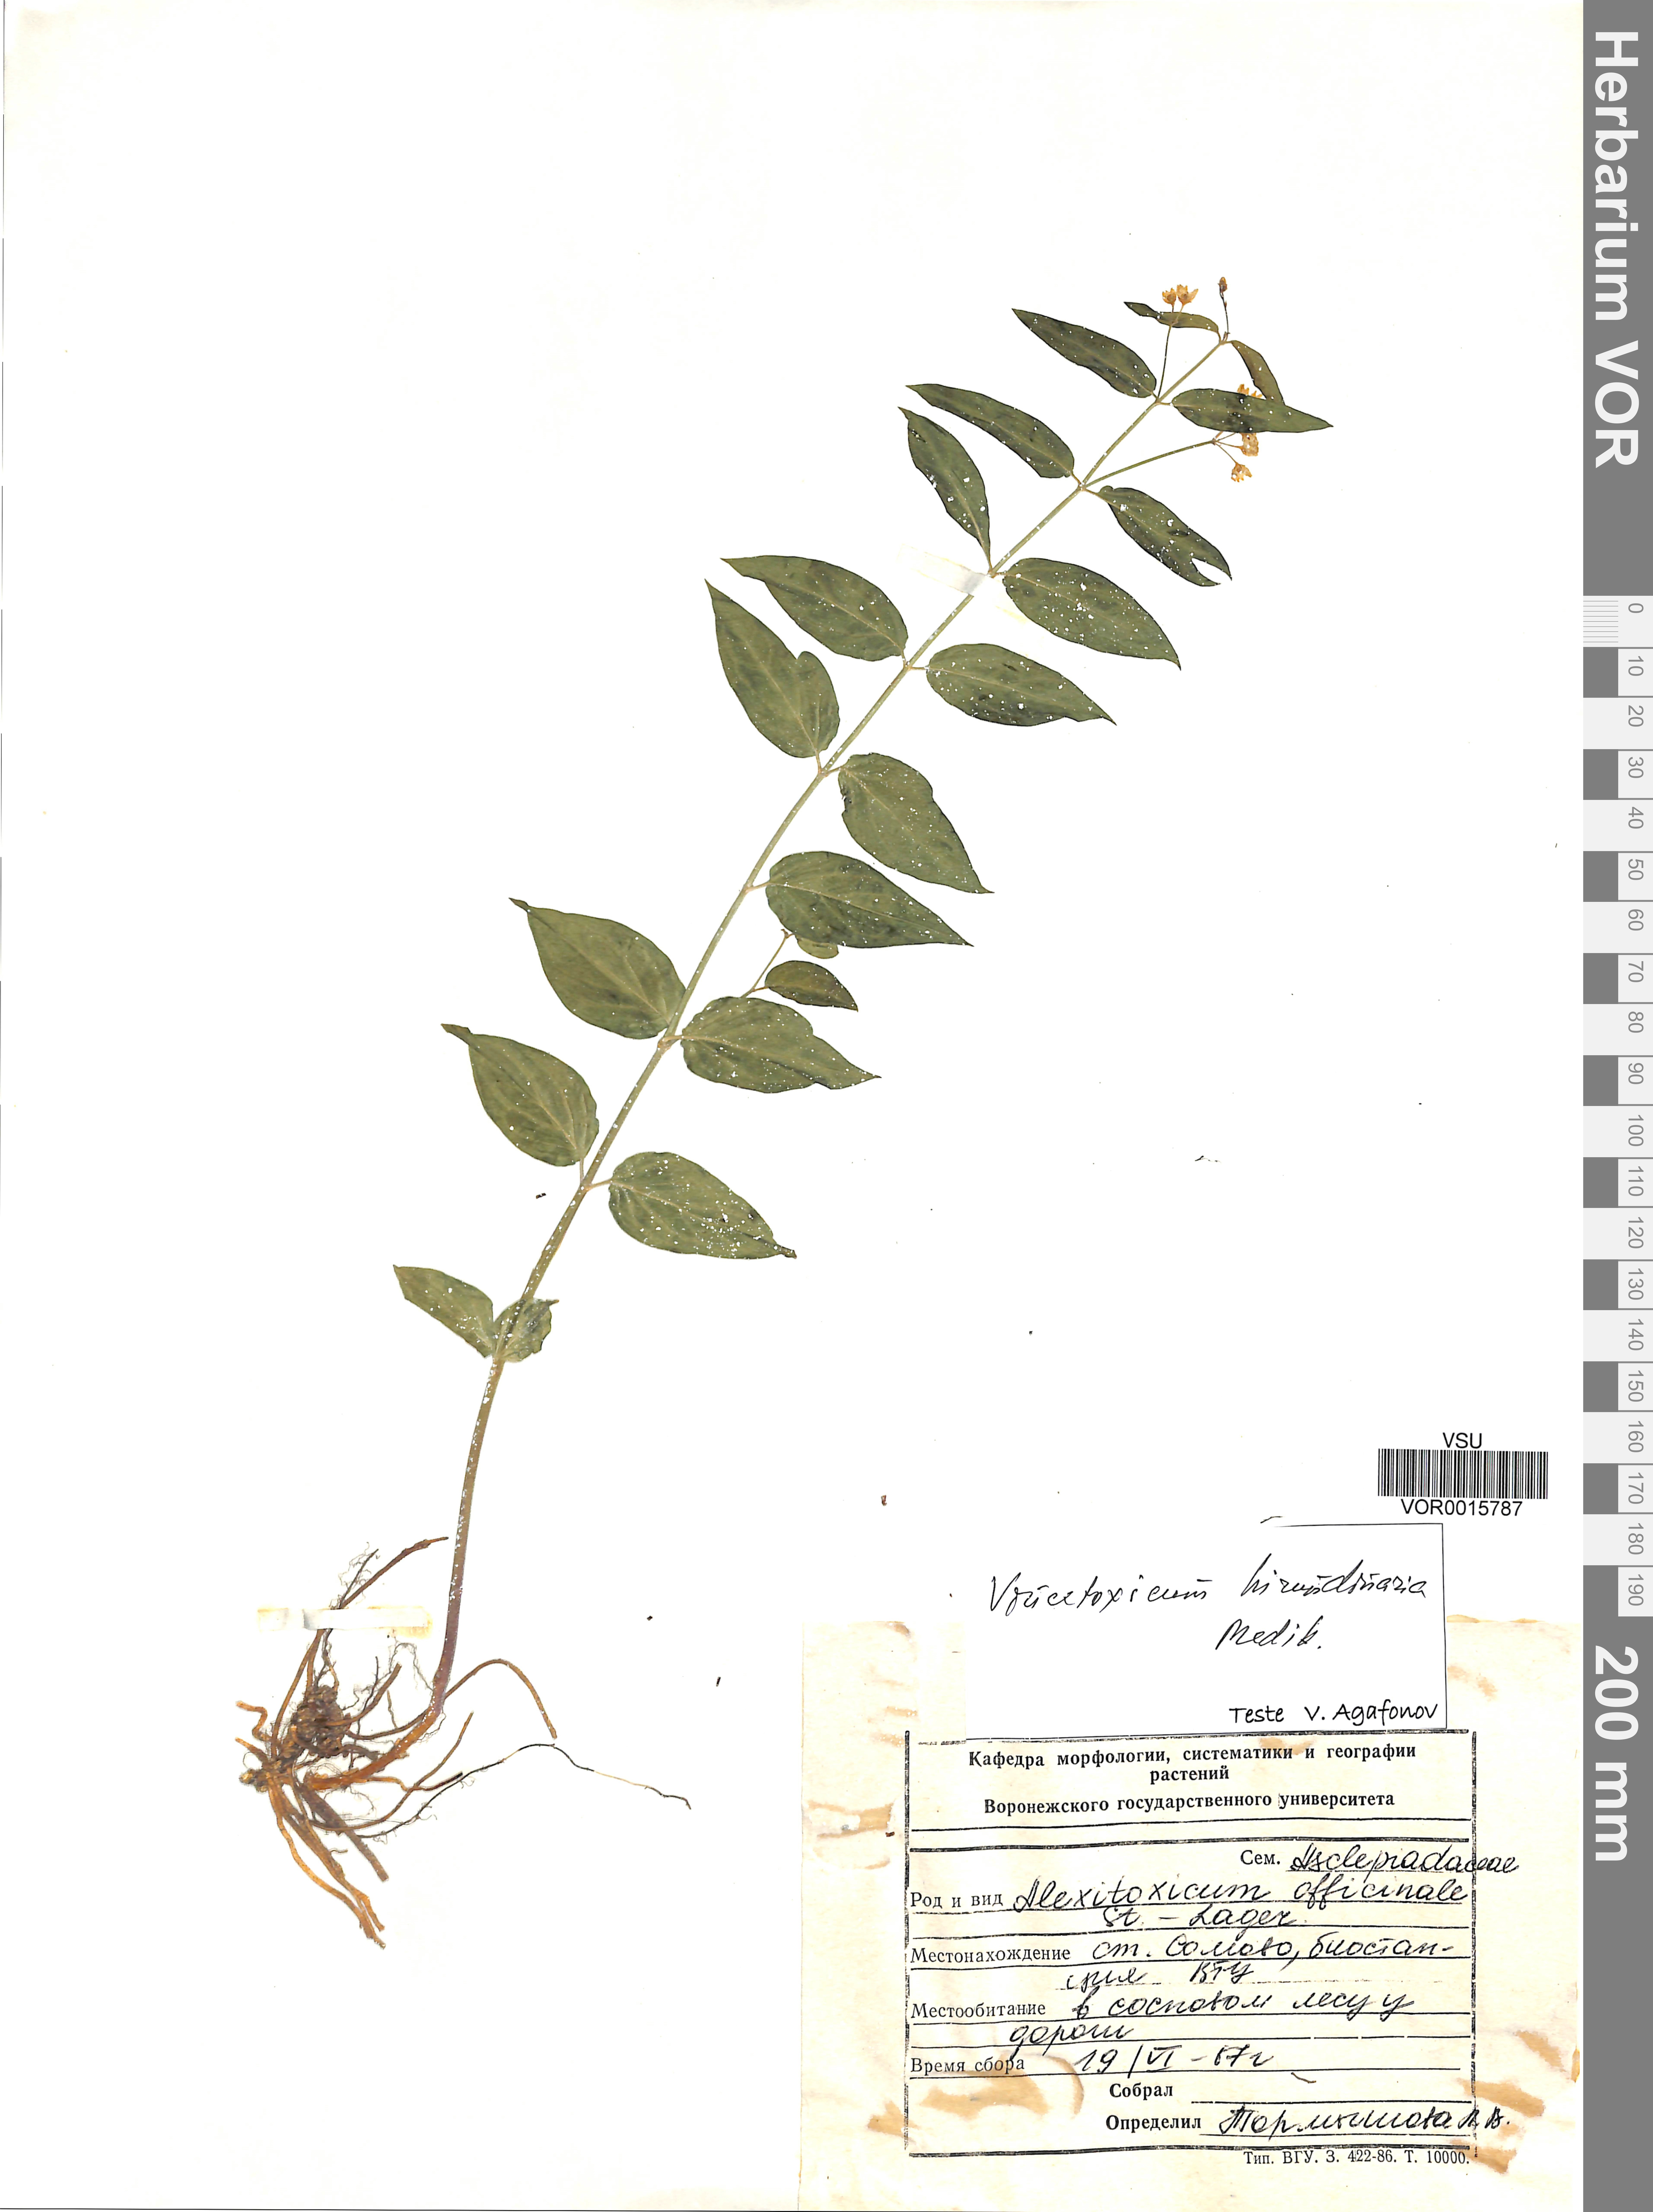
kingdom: Plantae
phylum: Tracheophyta
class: Magnoliopsida
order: Gentianales
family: Apocynaceae
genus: Vincetoxicum
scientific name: Vincetoxicum hirundinaria
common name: White swallowwort
